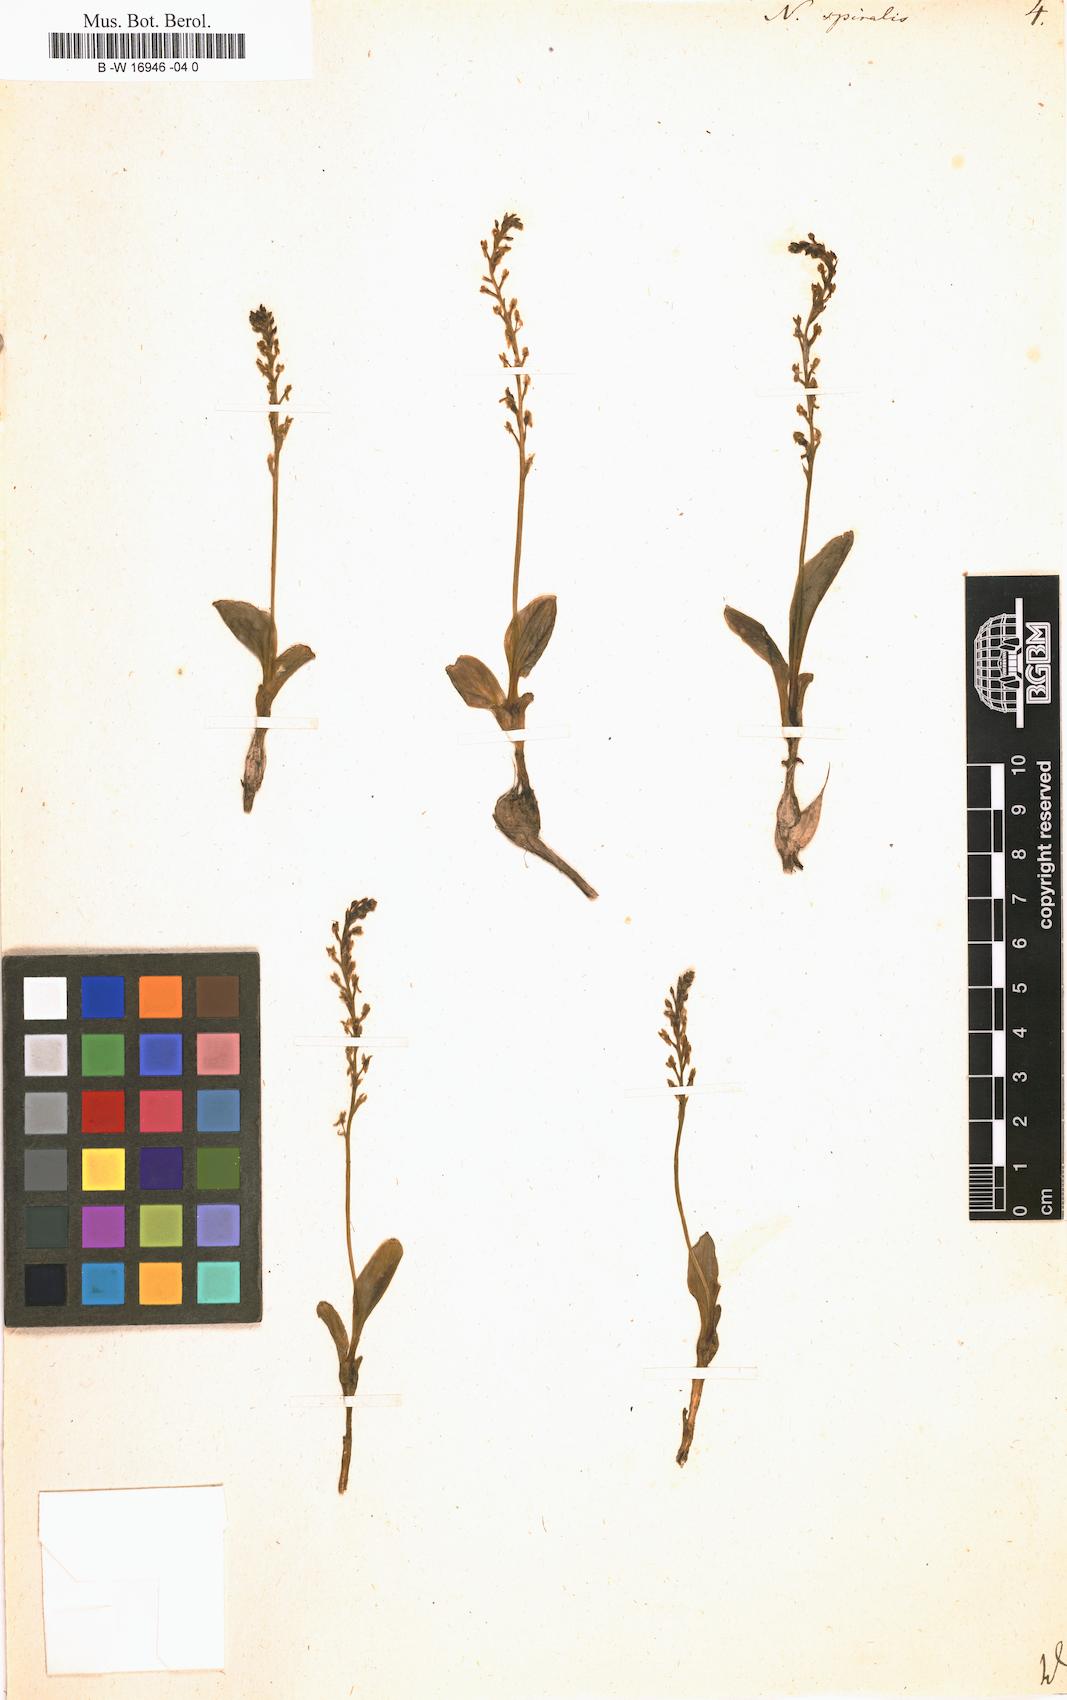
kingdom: Plantae
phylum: Tracheophyta
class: Liliopsida
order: Asparagales
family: Orchidaceae
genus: Spiranthes
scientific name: Spiranthes spiralis
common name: Autumn lady's-tresses
